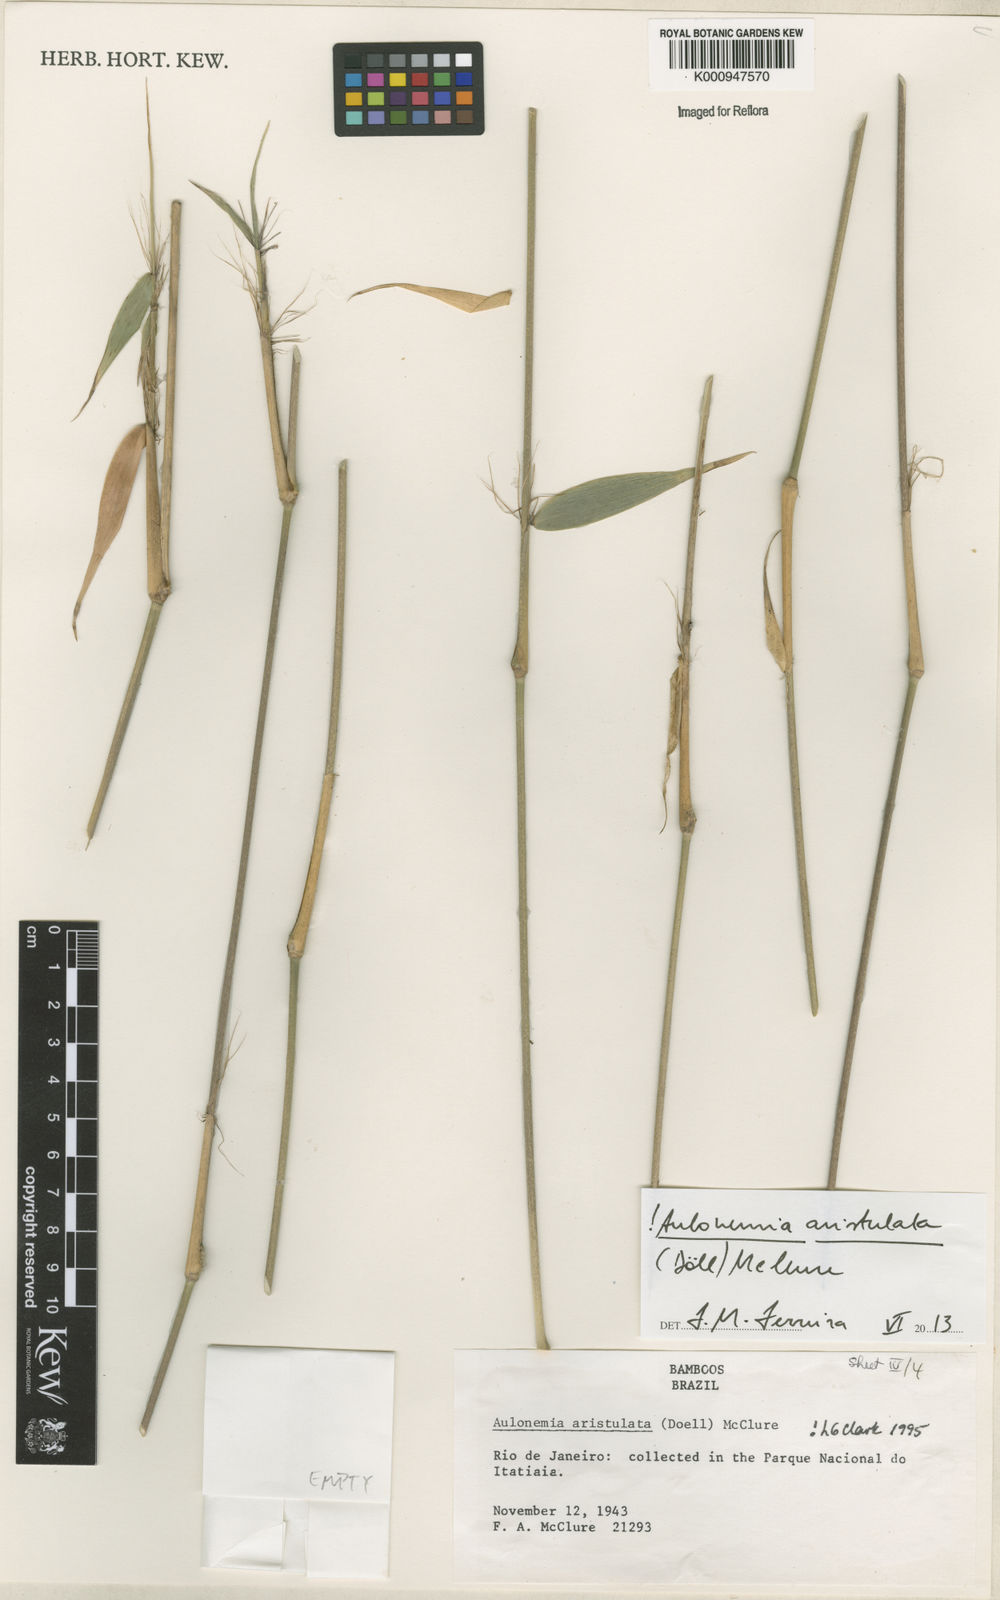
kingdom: Plantae
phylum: Tracheophyta
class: Liliopsida
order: Poales
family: Poaceae
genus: Aulonemia
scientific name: Aulonemia
